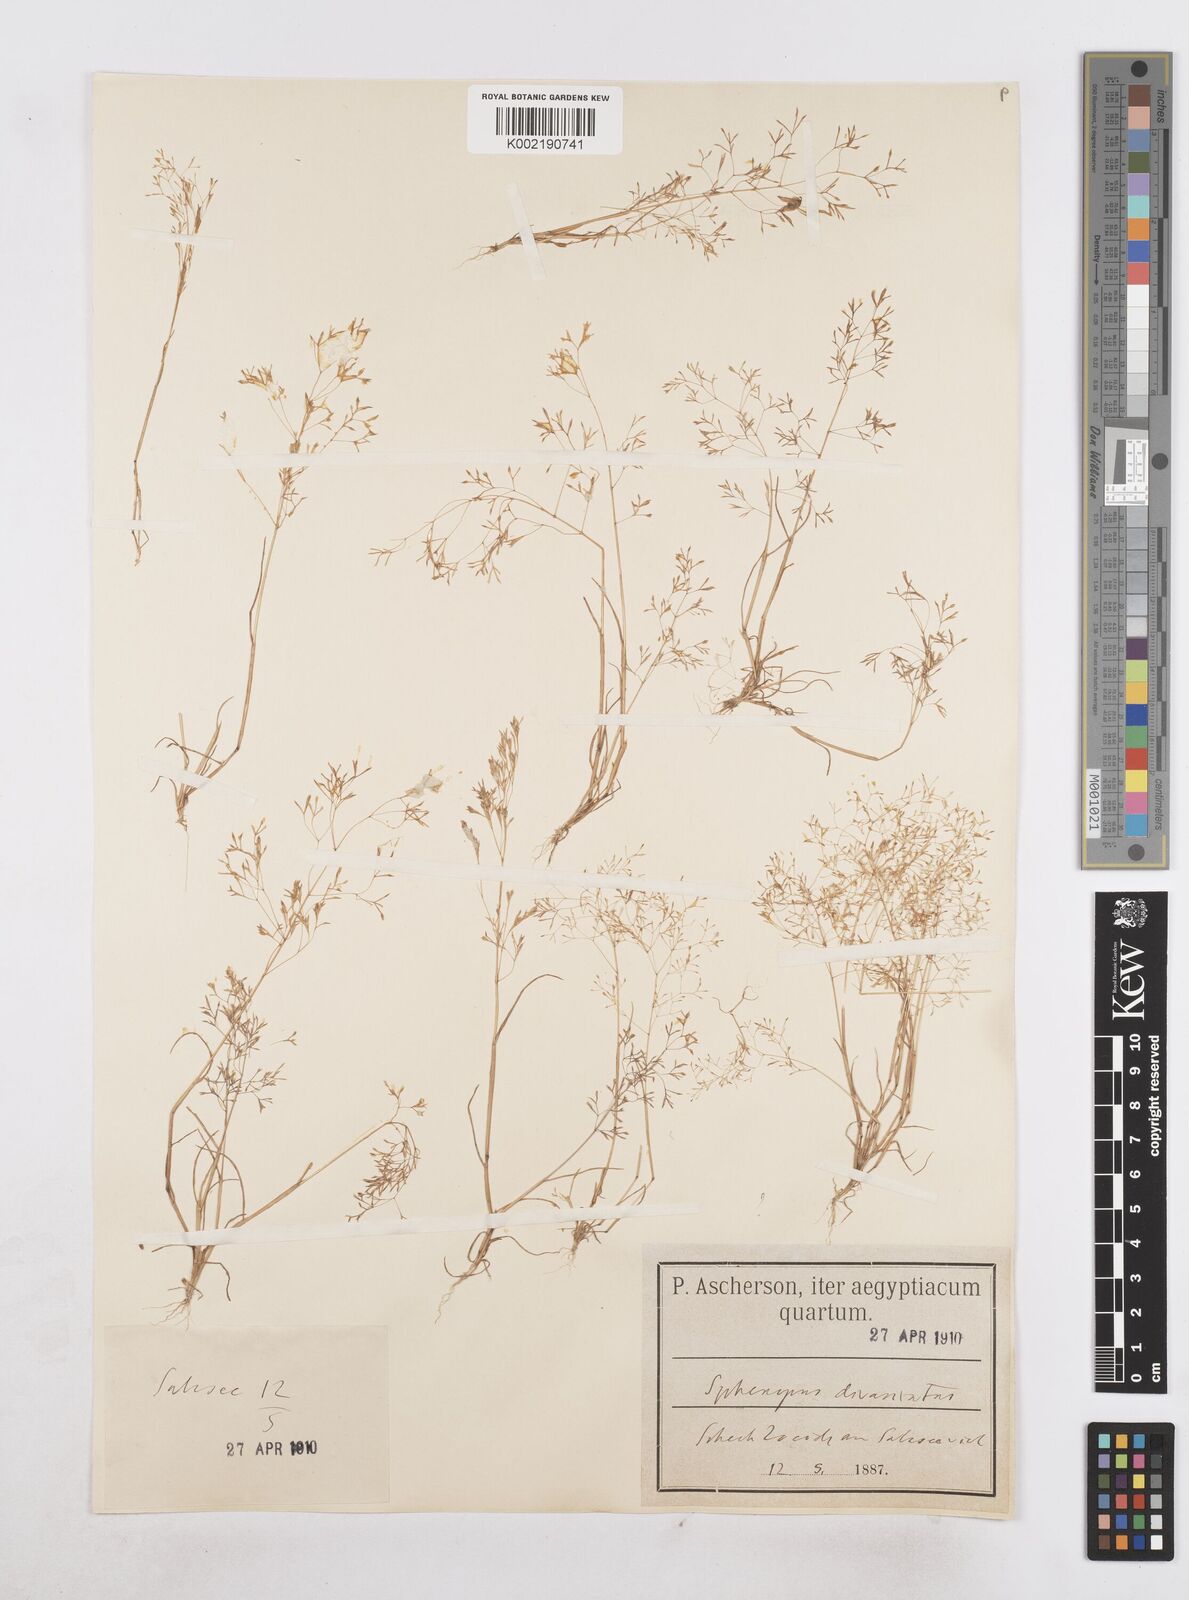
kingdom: Plantae
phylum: Tracheophyta
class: Liliopsida
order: Poales
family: Poaceae
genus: Sphenopus
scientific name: Sphenopus divaricatus
